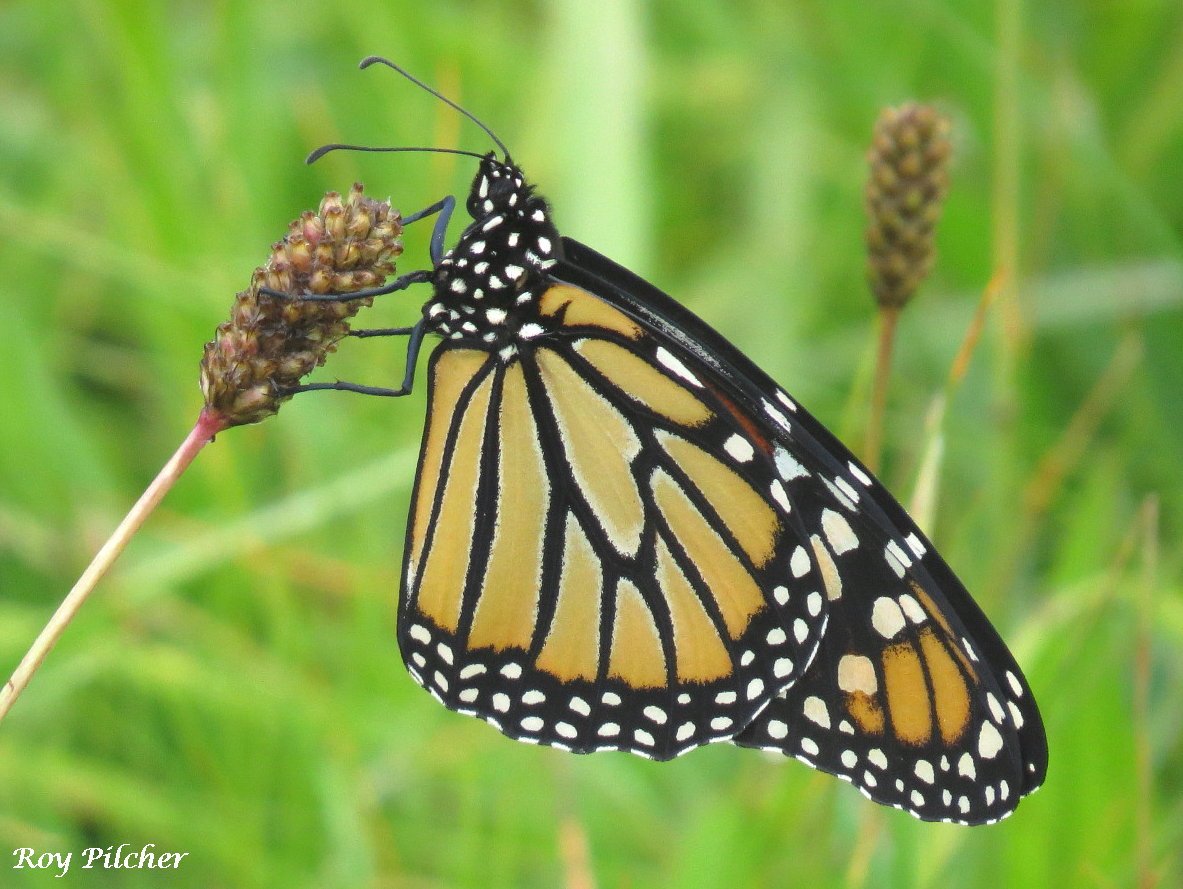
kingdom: Animalia
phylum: Arthropoda
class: Insecta
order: Lepidoptera
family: Nymphalidae
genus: Danaus
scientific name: Danaus plexippus
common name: Monarch
